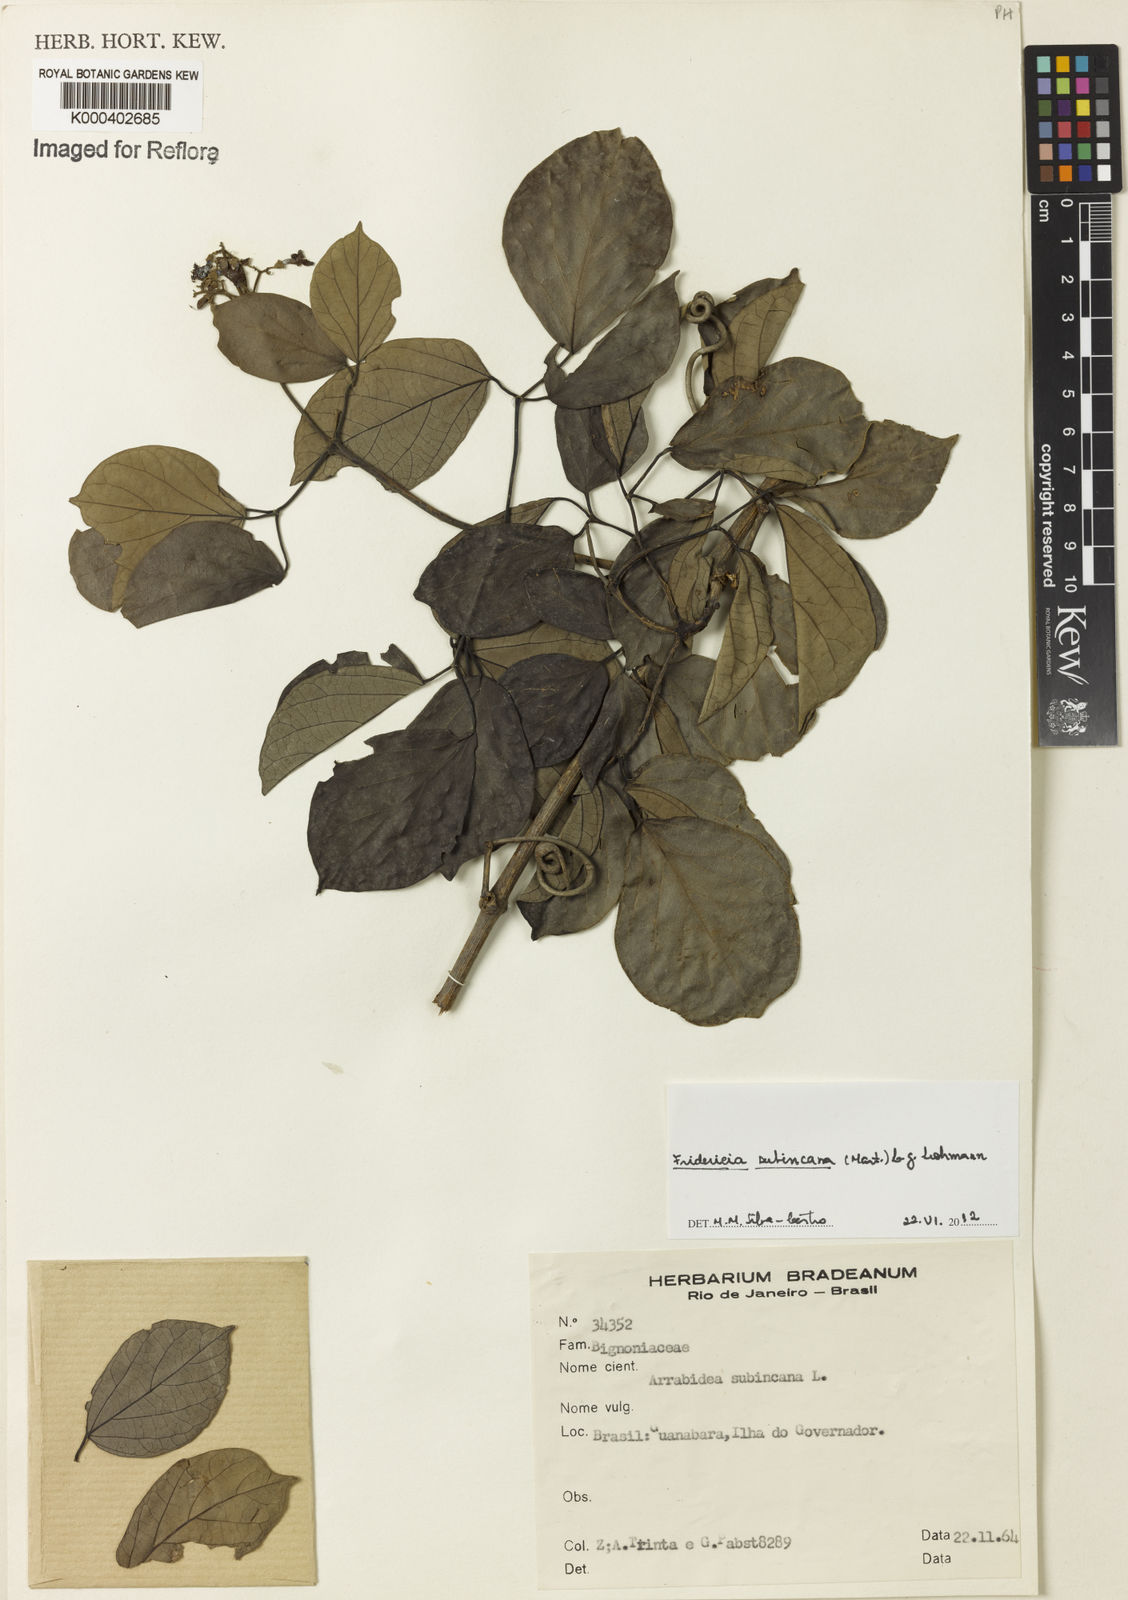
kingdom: Plantae
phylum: Tracheophyta
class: Magnoliopsida
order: Lamiales
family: Bignoniaceae
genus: Fridericia
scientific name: Fridericia subincana
